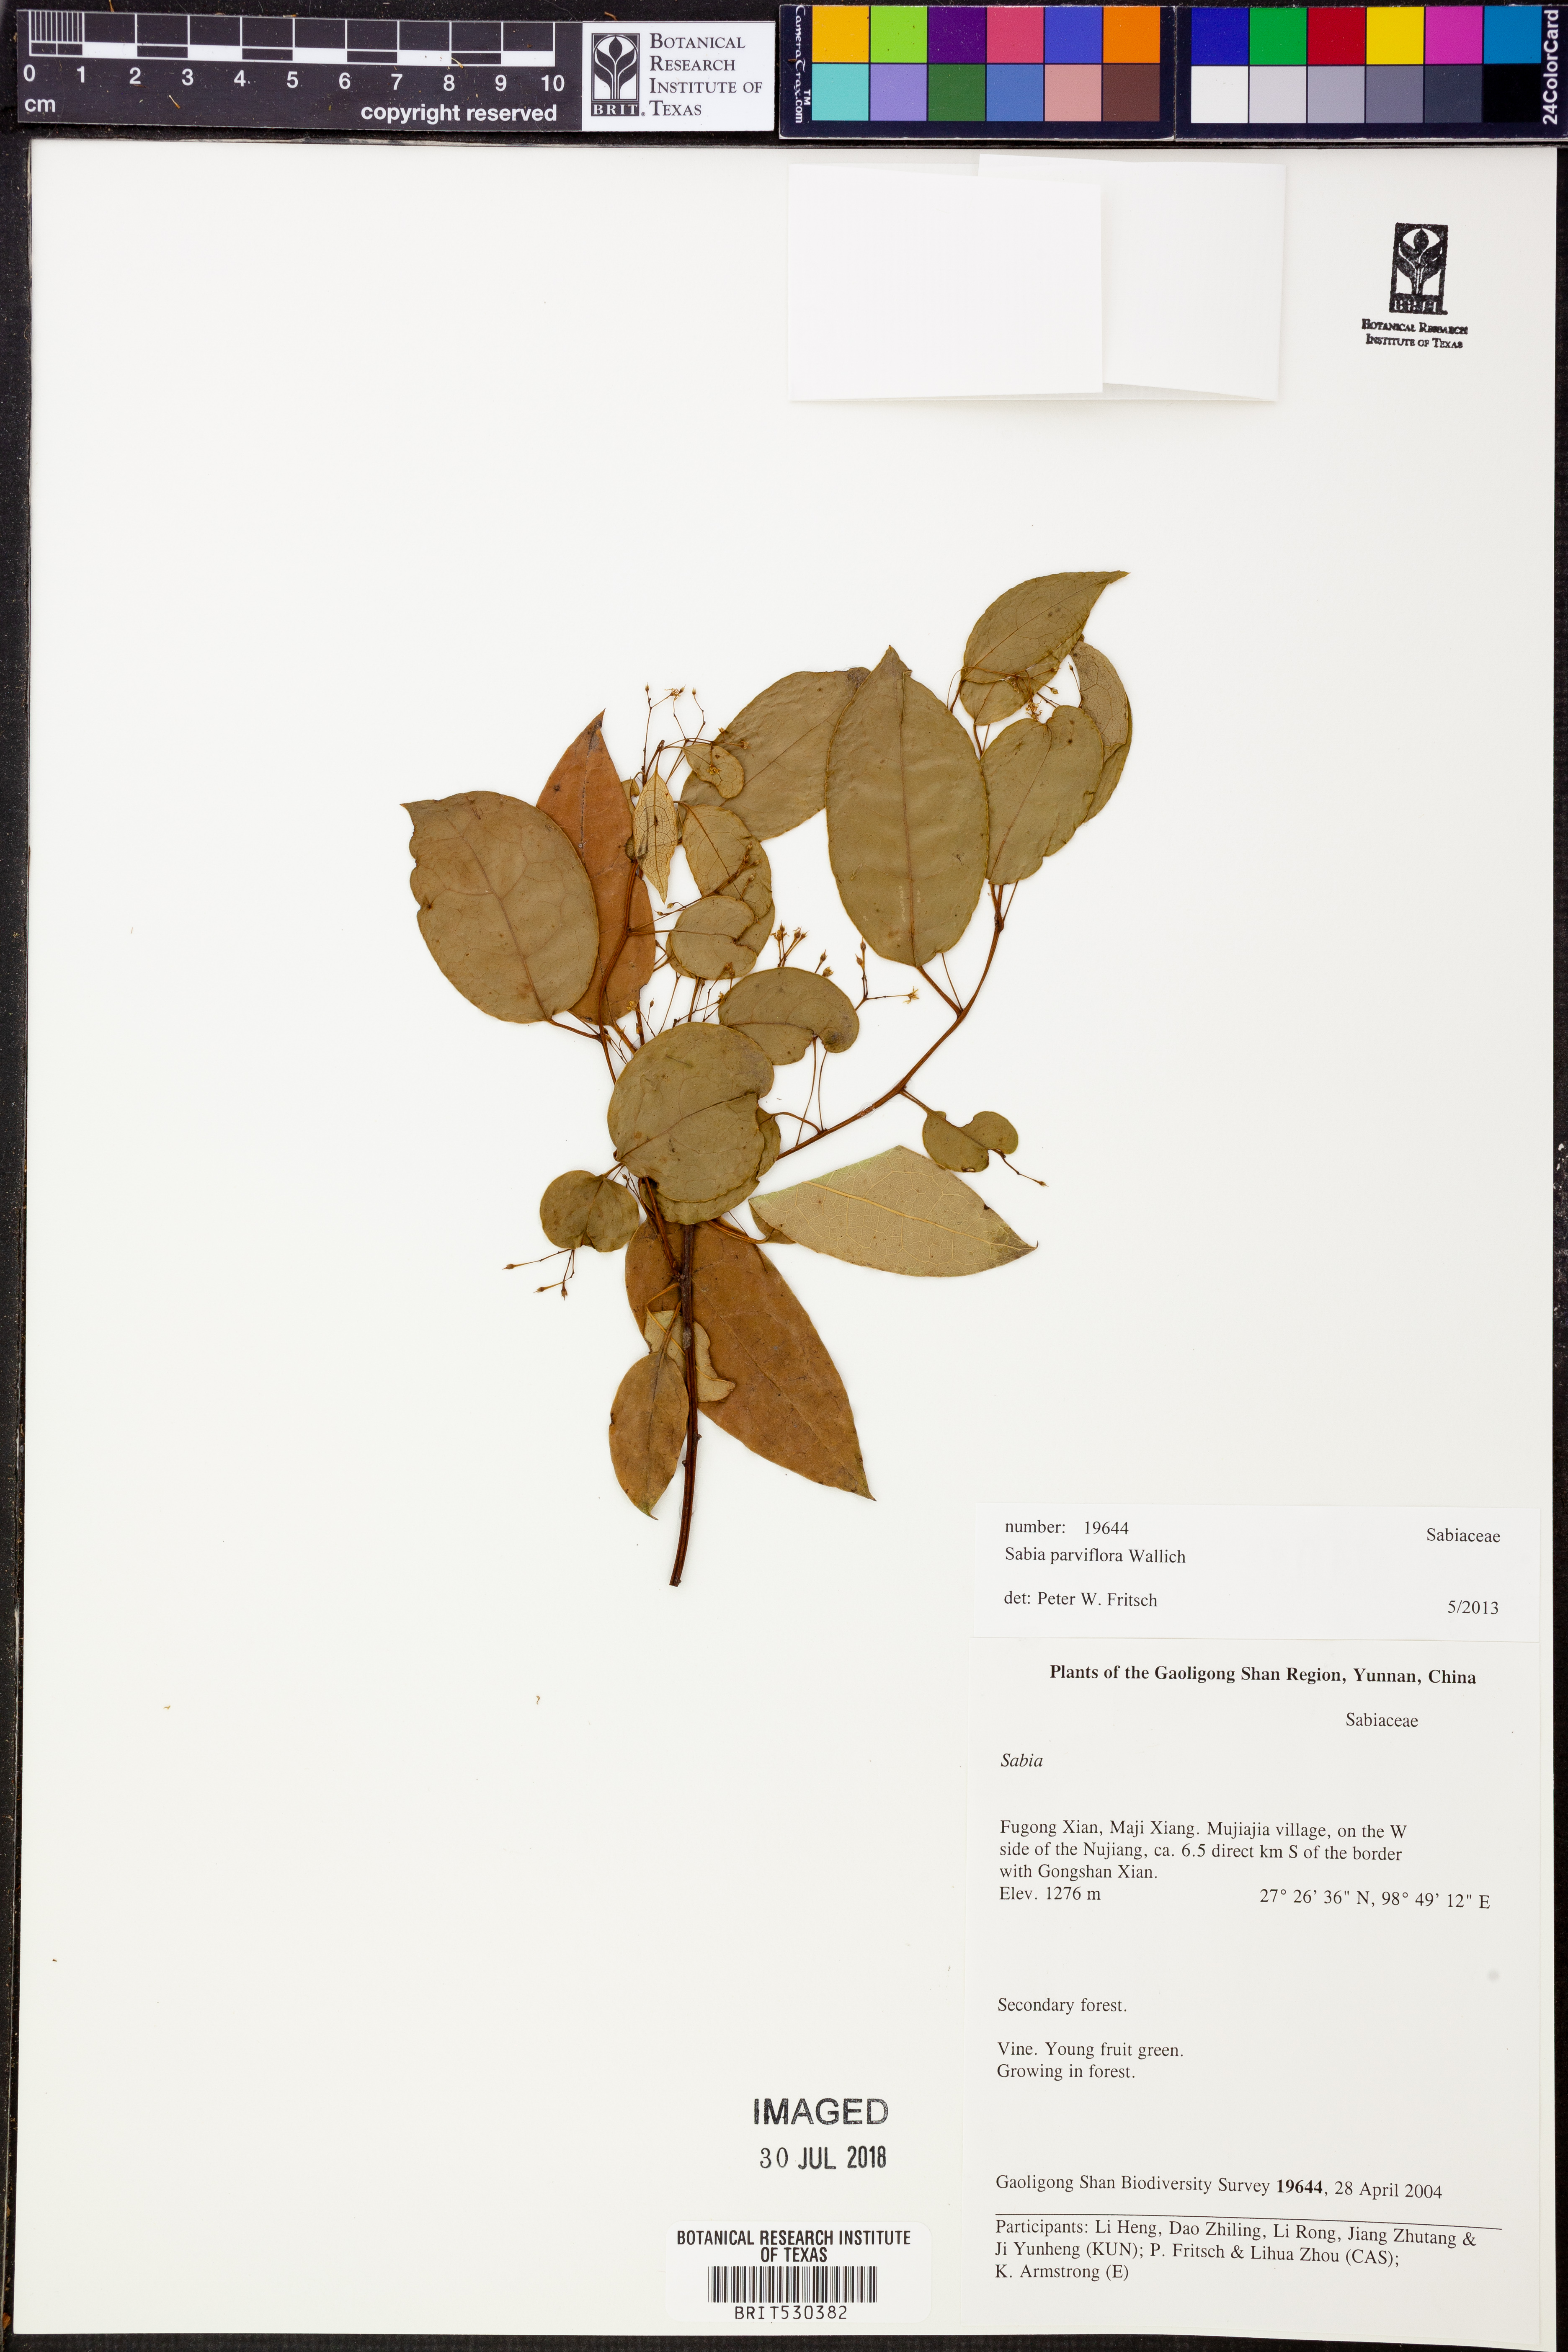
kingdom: Plantae
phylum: Tracheophyta
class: Magnoliopsida
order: Proteales
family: Sabiaceae
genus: Sabia
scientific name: Sabia parviflora
